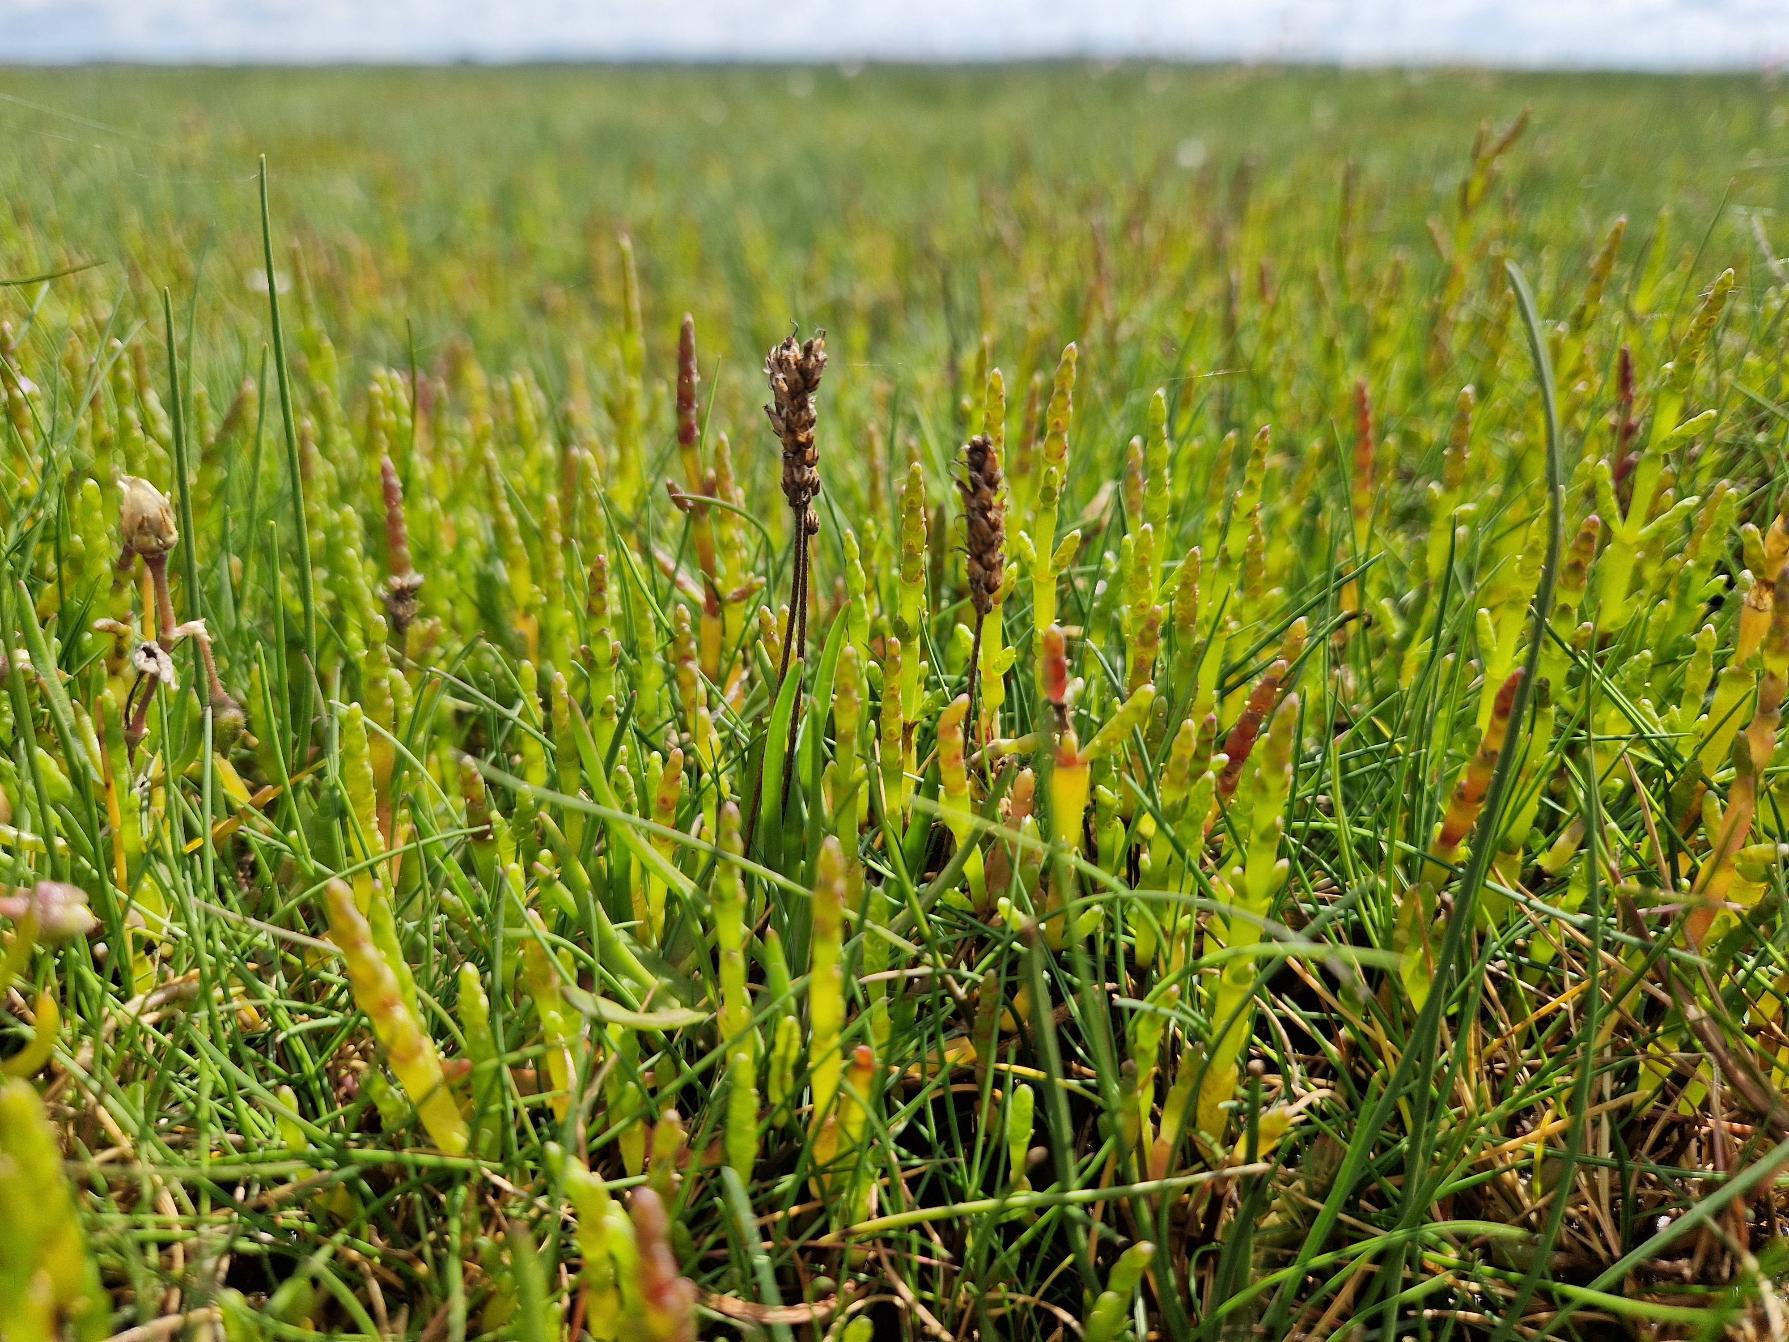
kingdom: Plantae
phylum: Tracheophyta
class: Magnoliopsida
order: Caryophyllales
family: Amaranthaceae
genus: Salicornia
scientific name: Salicornia europaea
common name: Almindelig salturt
